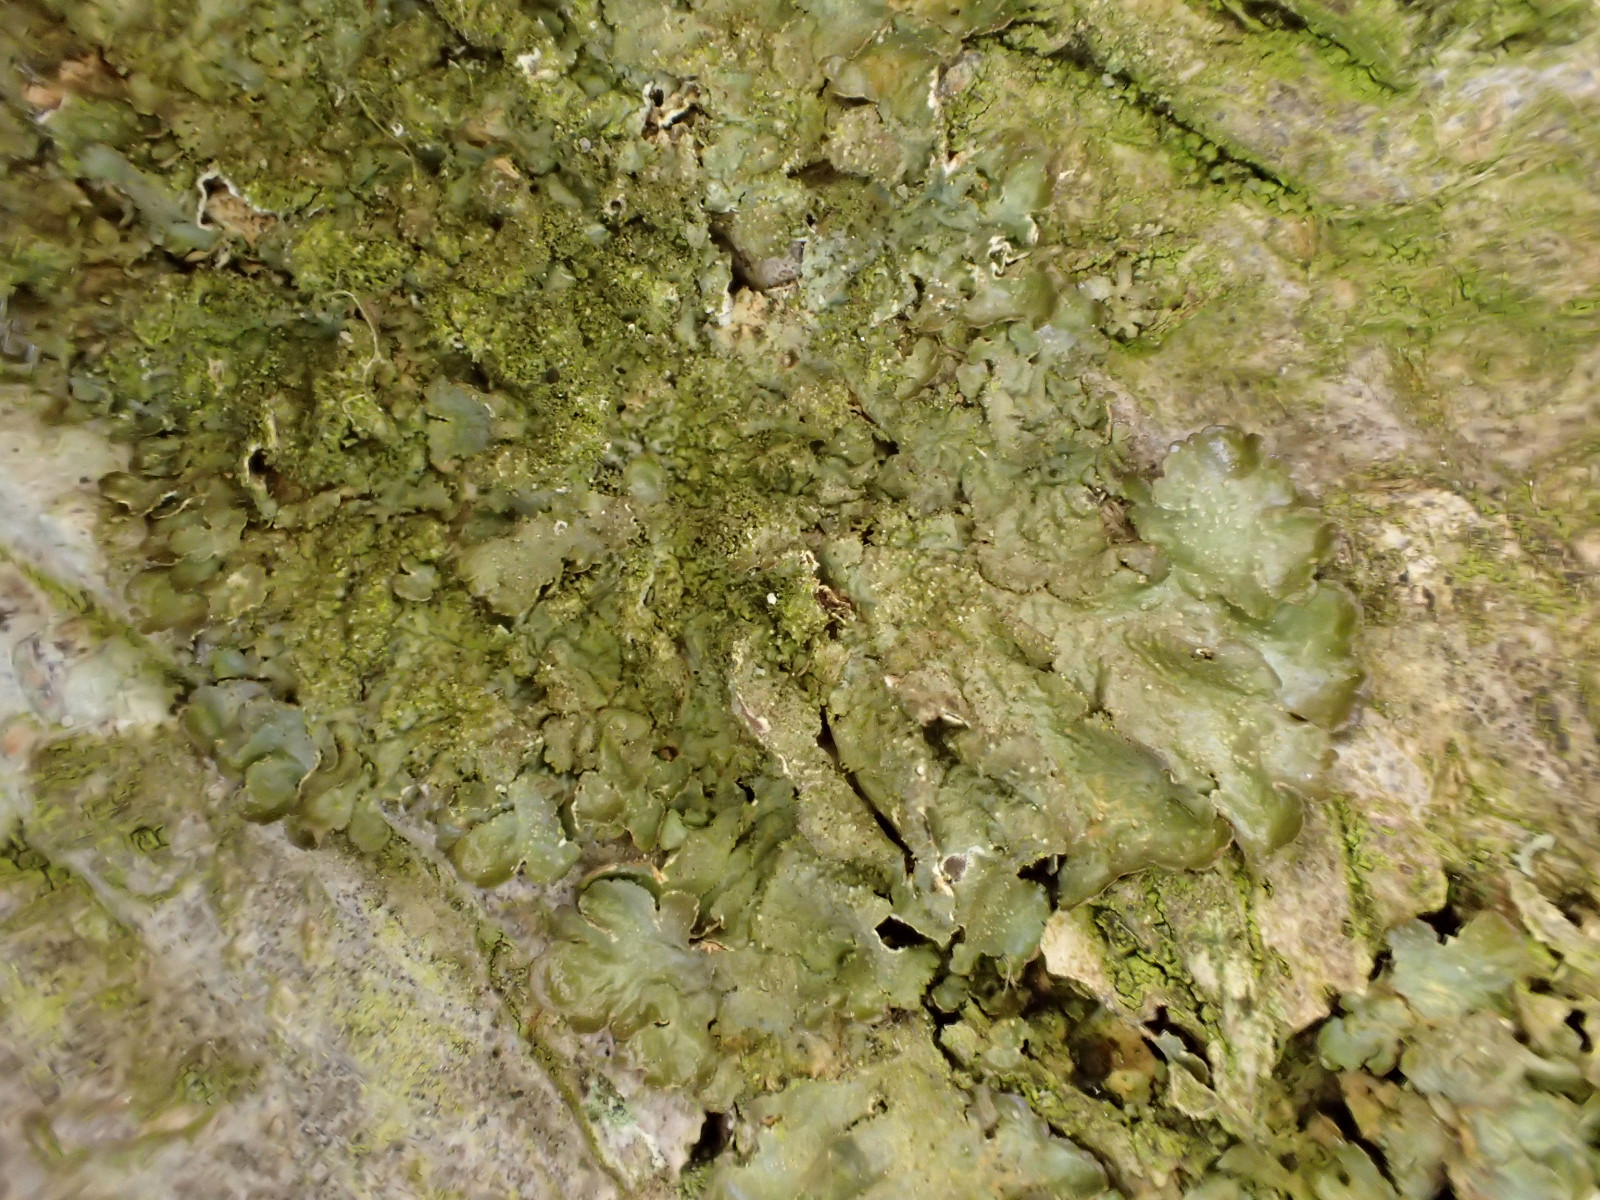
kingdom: Fungi
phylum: Ascomycota
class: Lecanoromycetes
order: Lecanorales
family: Parmeliaceae
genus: Melanelixia
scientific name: Melanelixia glabratula
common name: glinsende skållav
